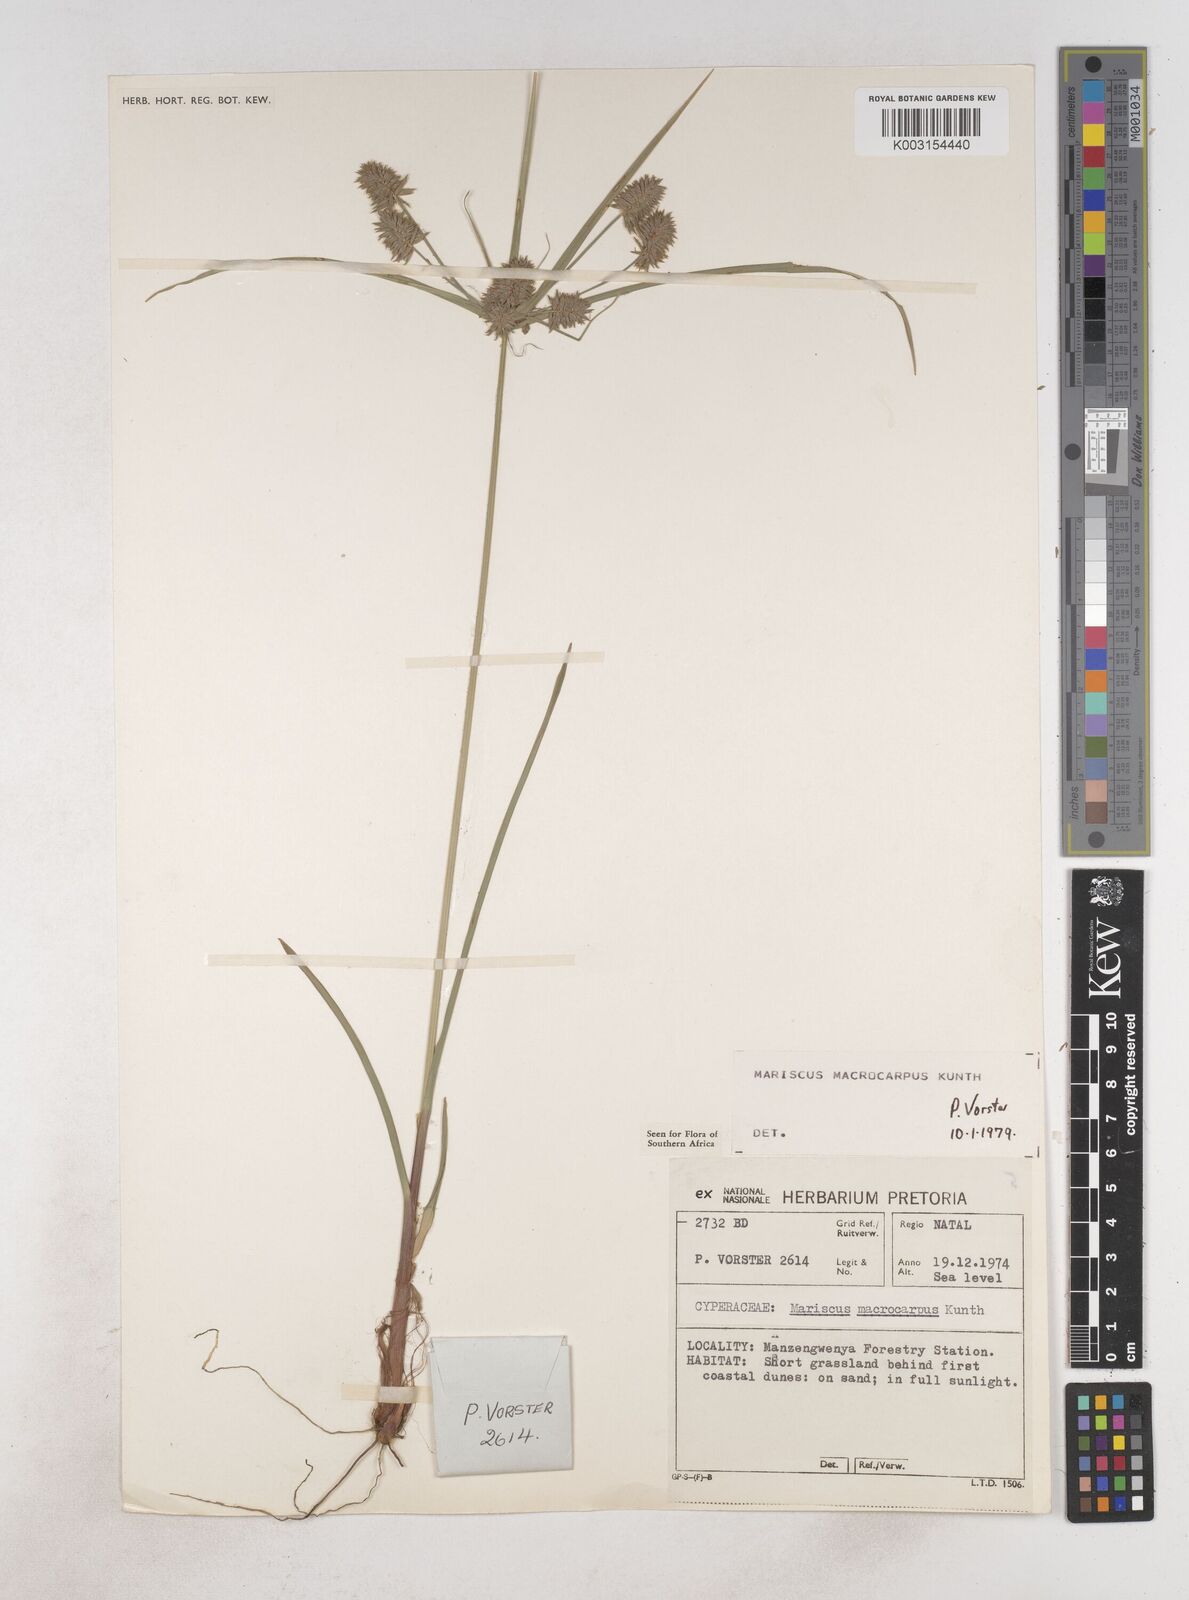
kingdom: Plantae
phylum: Tracheophyta
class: Liliopsida
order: Poales
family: Cyperaceae
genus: Cyperus
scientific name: Cyperus macrocarpus
